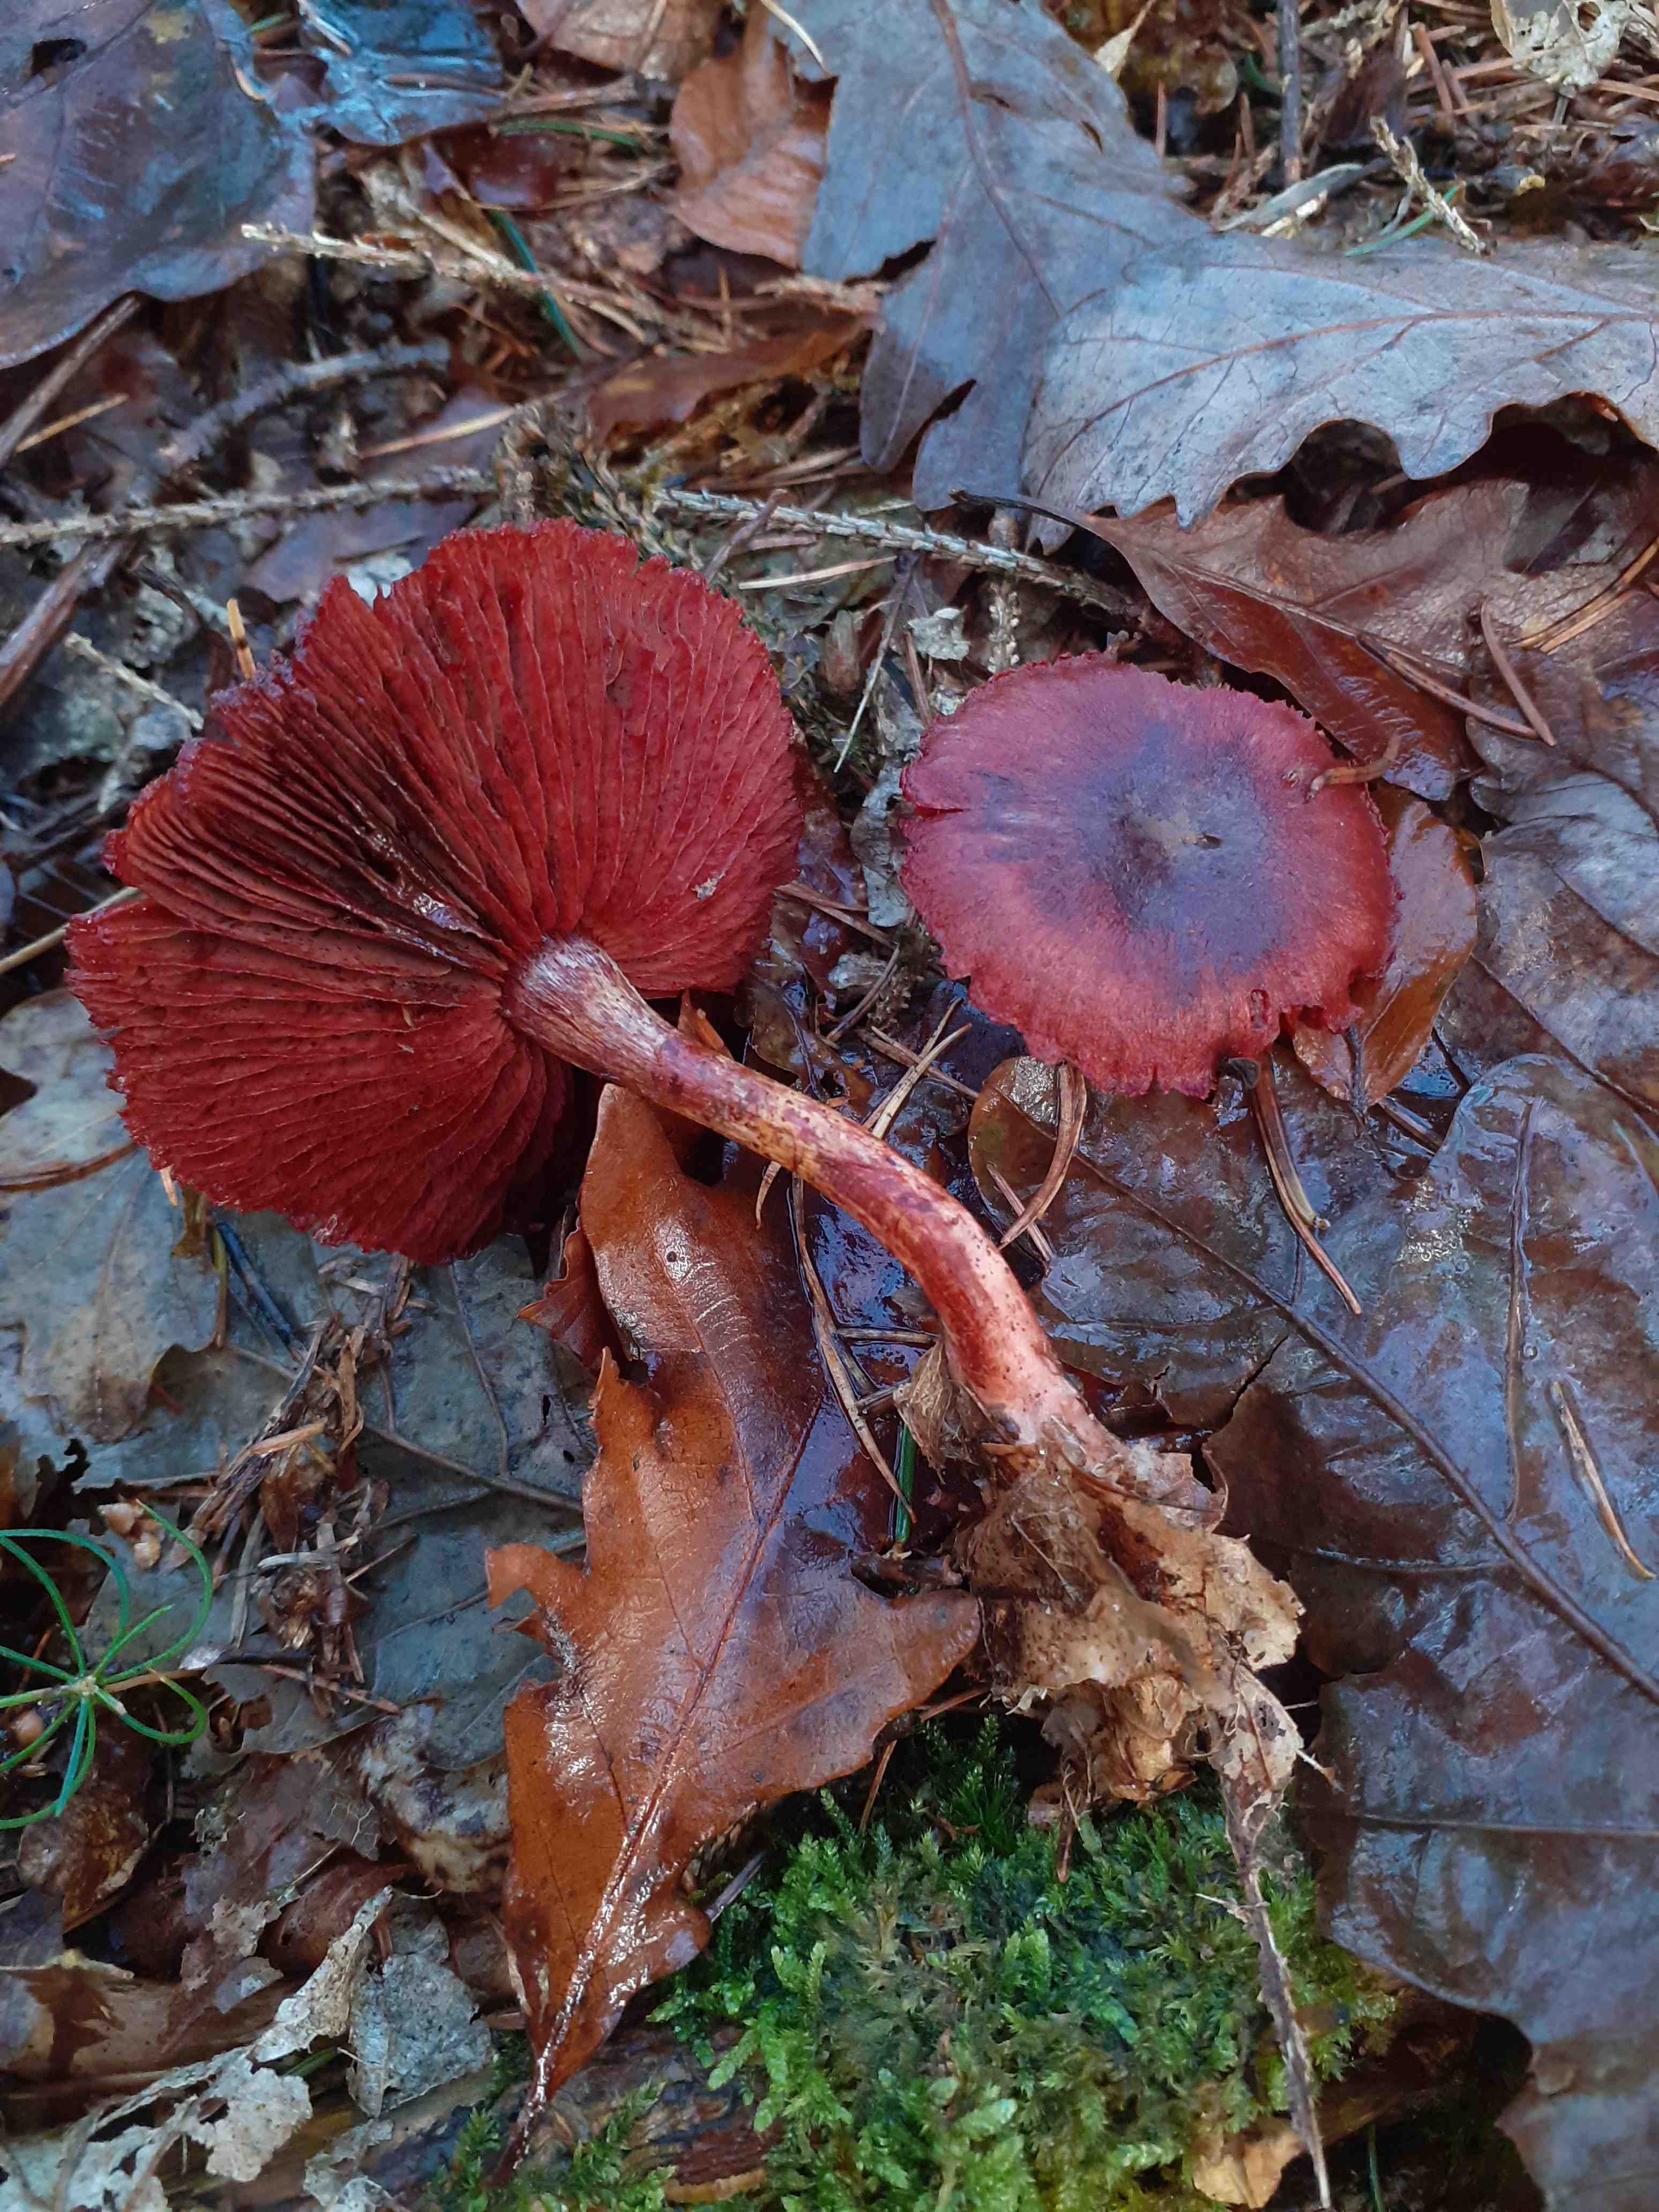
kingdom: Fungi
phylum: Basidiomycota
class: Agaricomycetes
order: Agaricales
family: Cortinariaceae
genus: Cortinarius
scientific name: Cortinarius sanguineus
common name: blodrød slørhat
